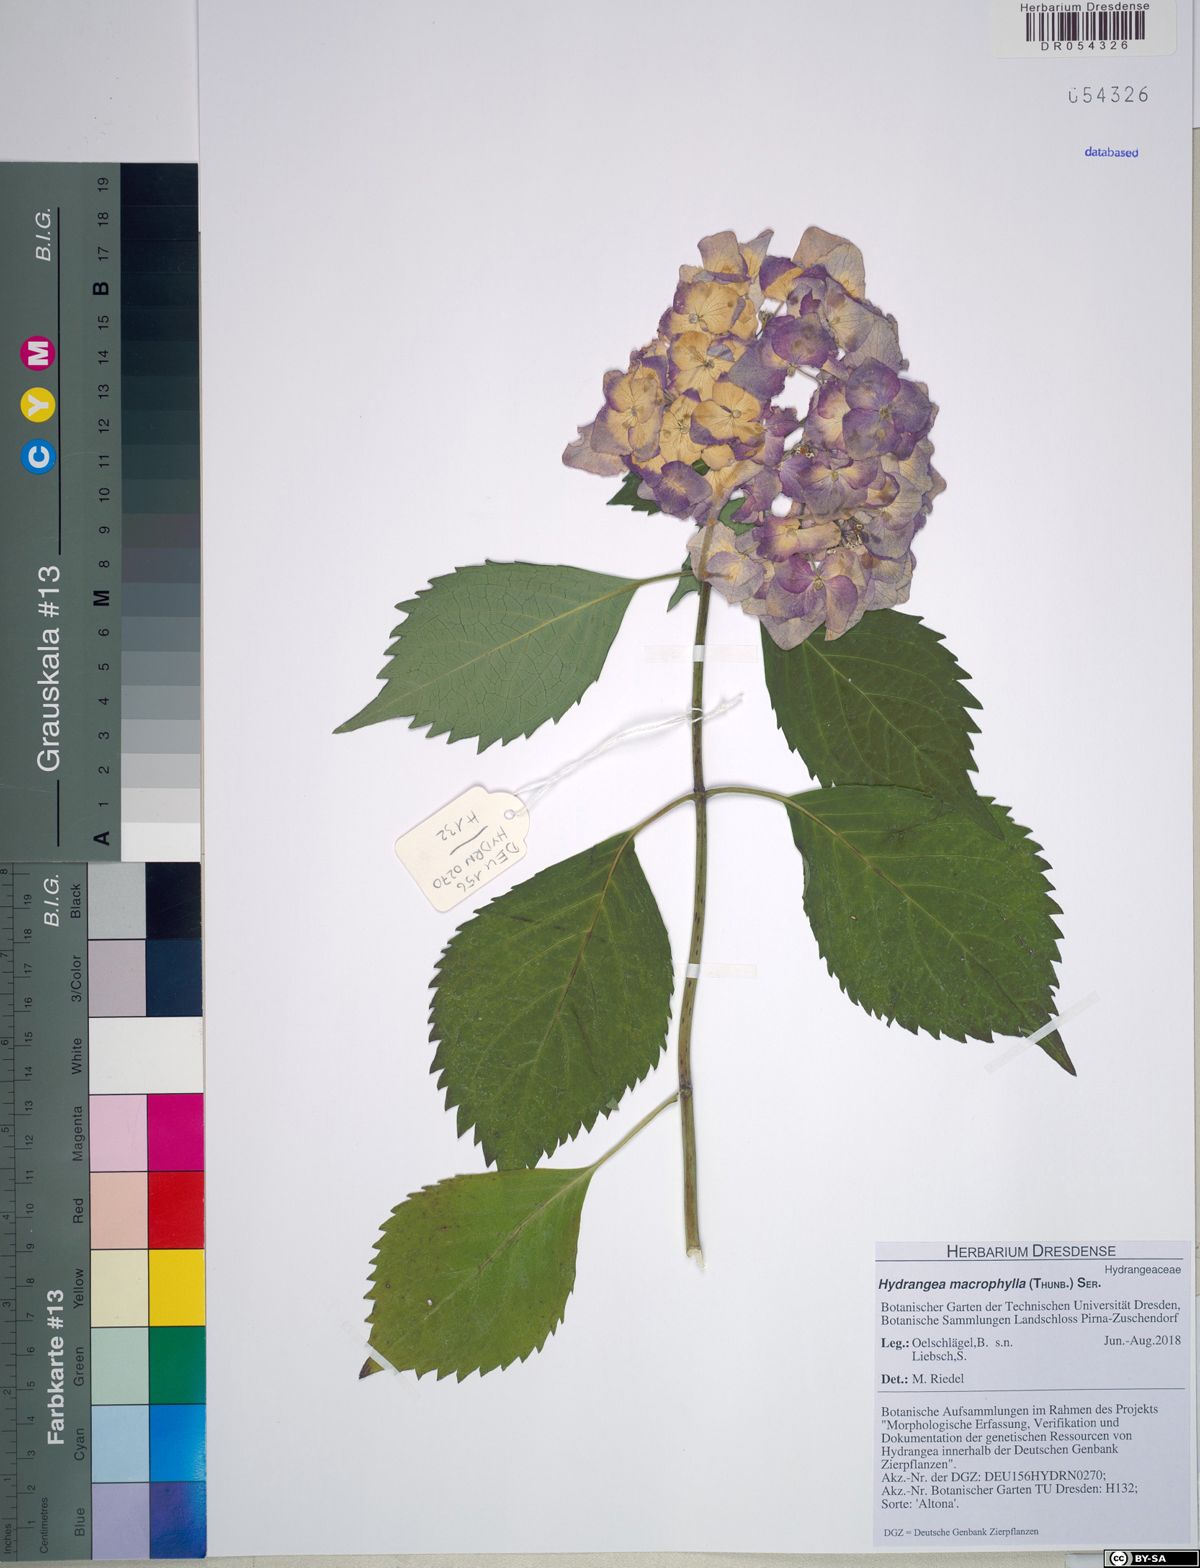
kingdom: Plantae
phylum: Tracheophyta
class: Magnoliopsida
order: Cornales
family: Hydrangeaceae
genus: Hydrangea
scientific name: Hydrangea macrophylla
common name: Hydrangea
